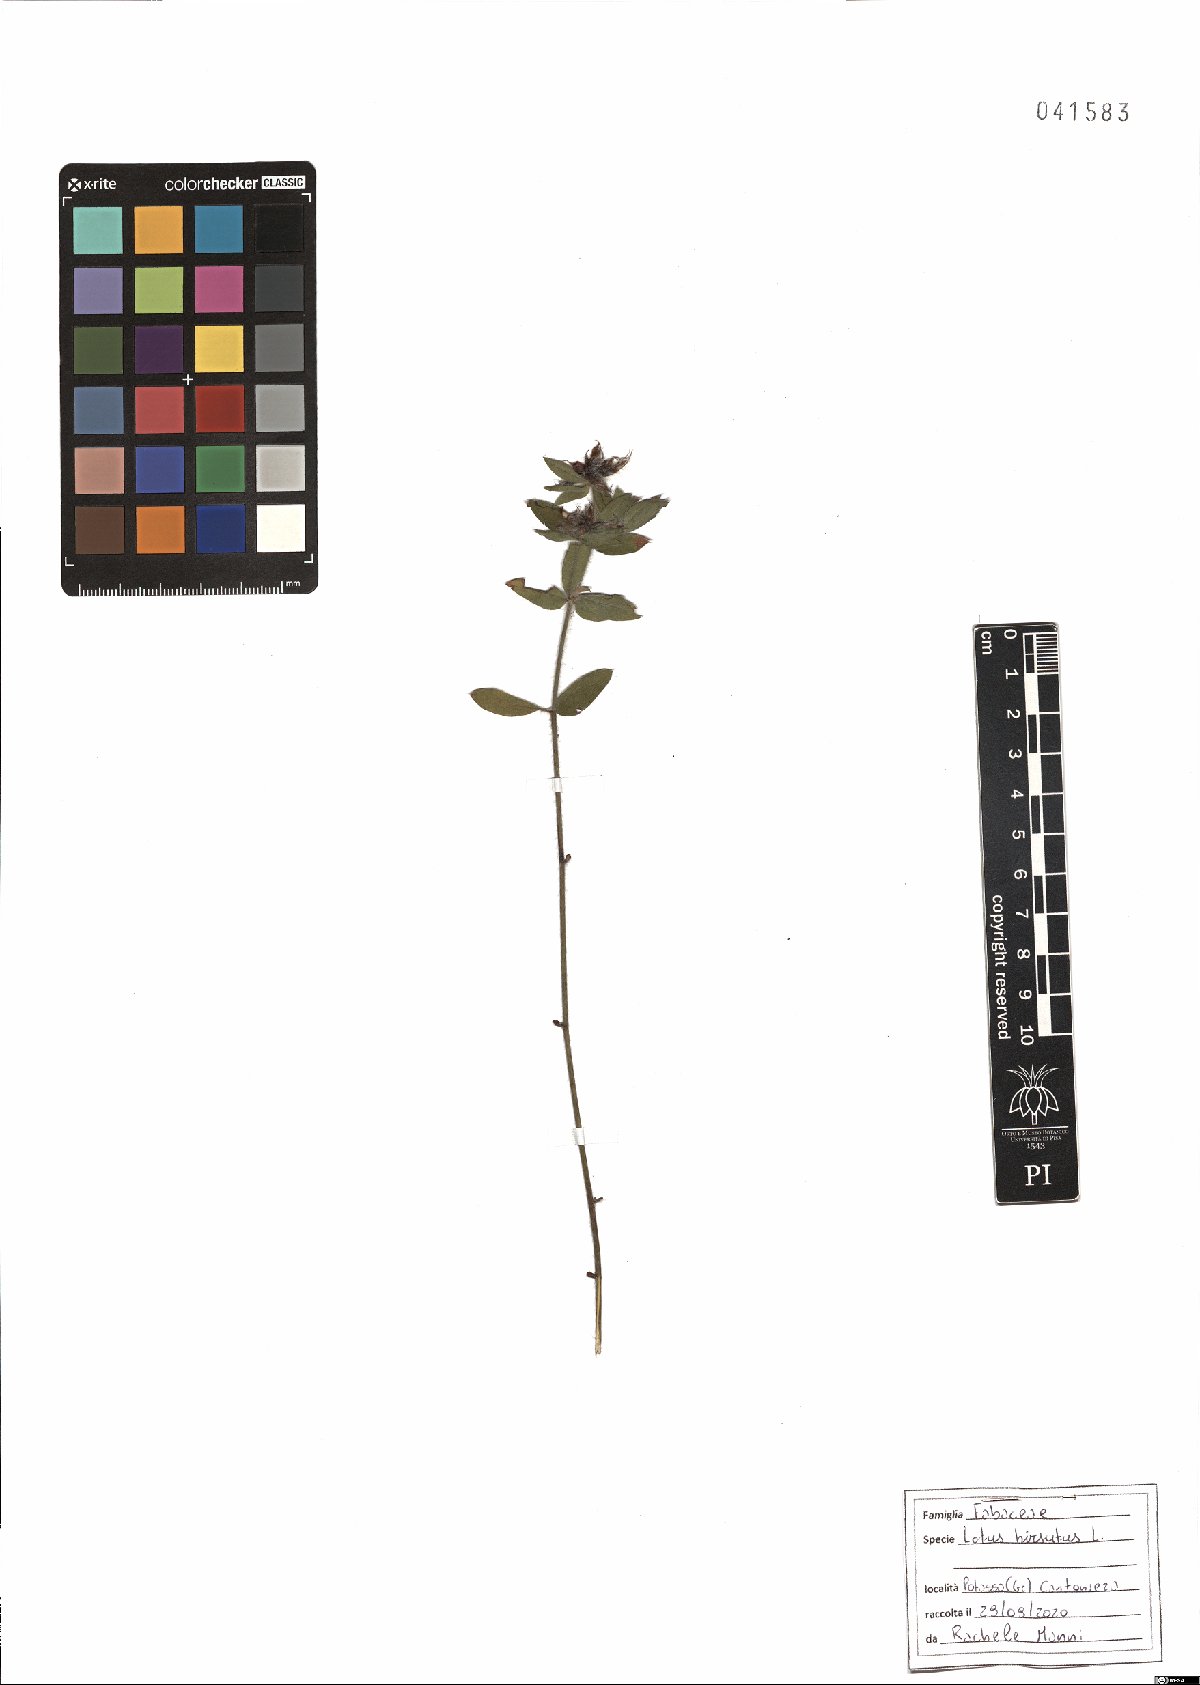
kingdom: Plantae
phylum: Tracheophyta
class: Magnoliopsida
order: Fabales
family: Fabaceae
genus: Lotus
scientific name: Lotus hirsutus
